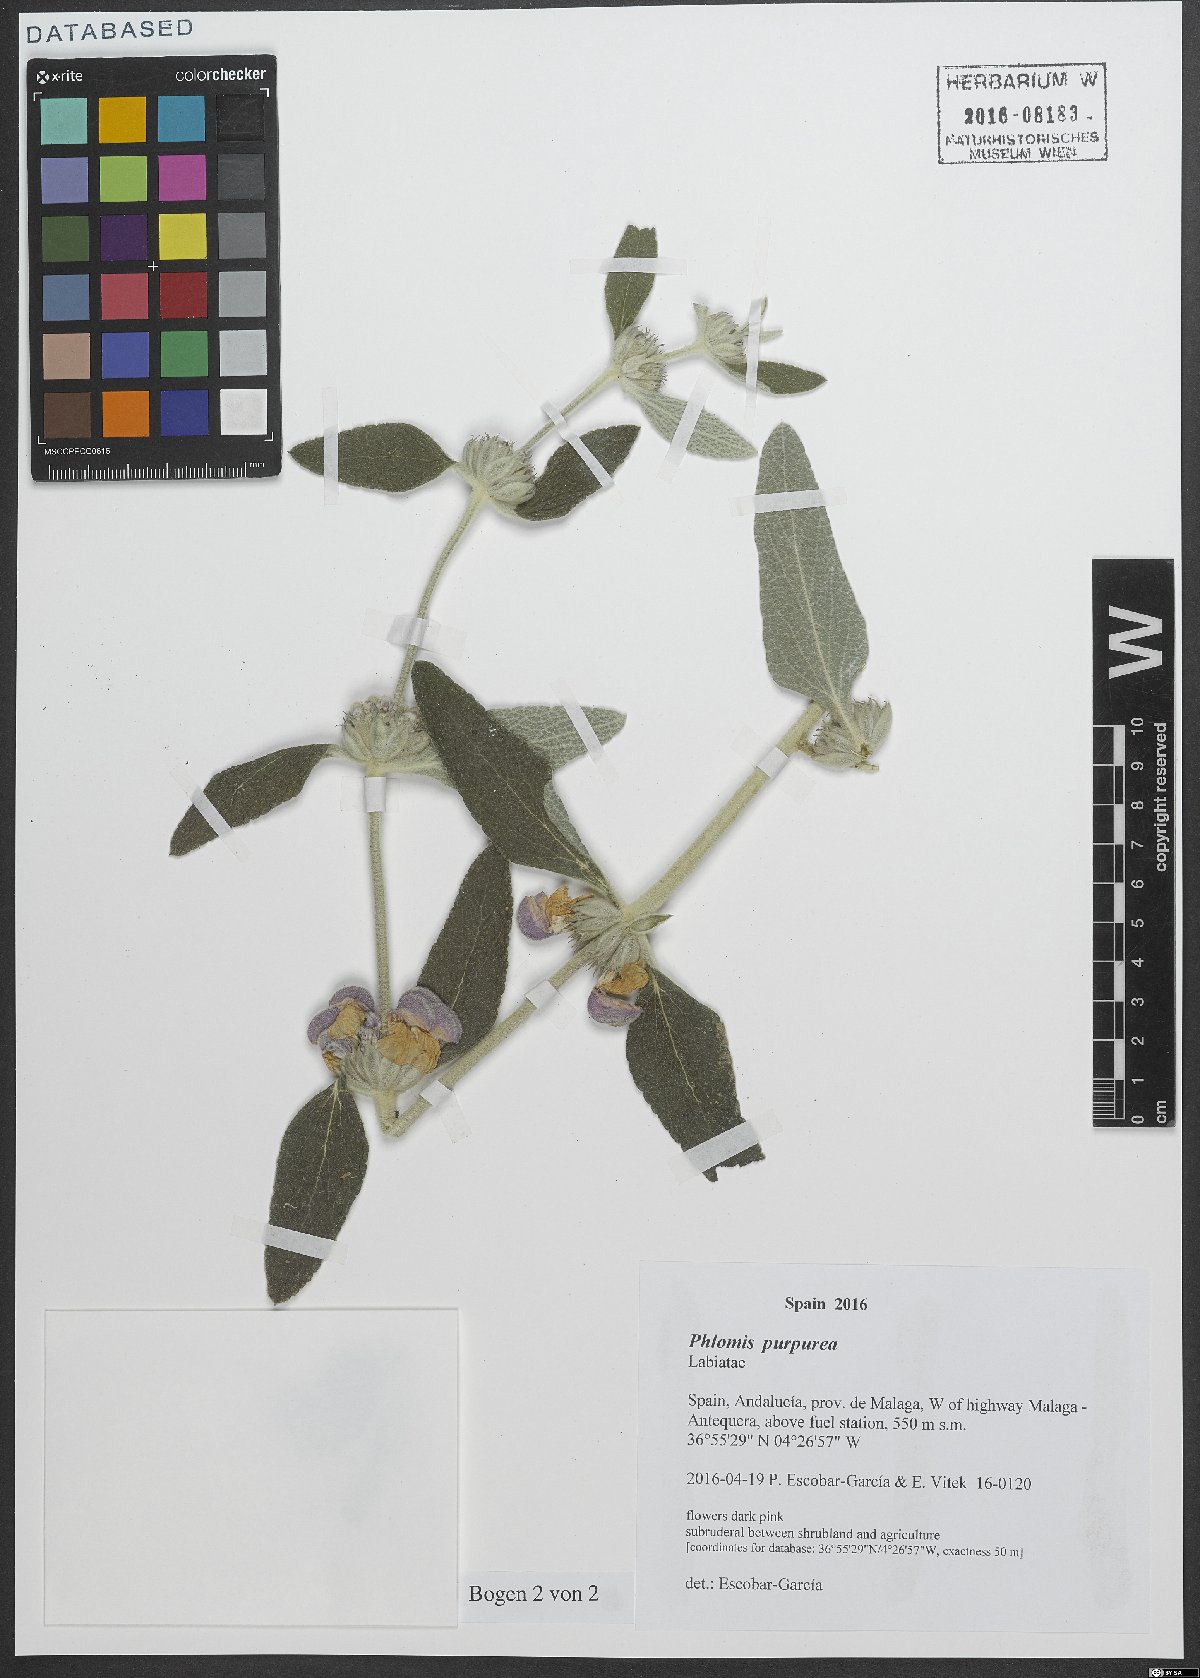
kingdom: Plantae
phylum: Tracheophyta
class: Magnoliopsida
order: Lamiales
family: Lamiaceae
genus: Phlomis
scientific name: Phlomis purpurea
